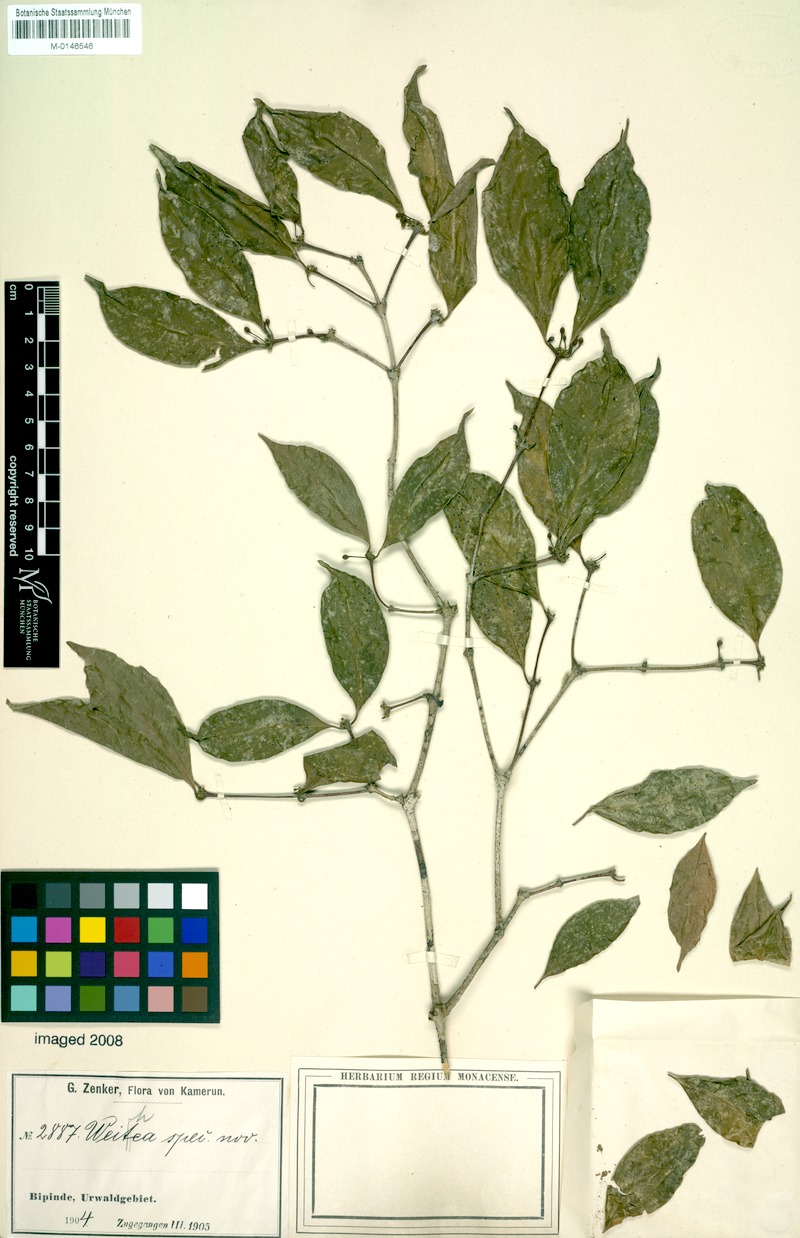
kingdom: Plantae
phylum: Tracheophyta
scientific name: Tracheophyta
